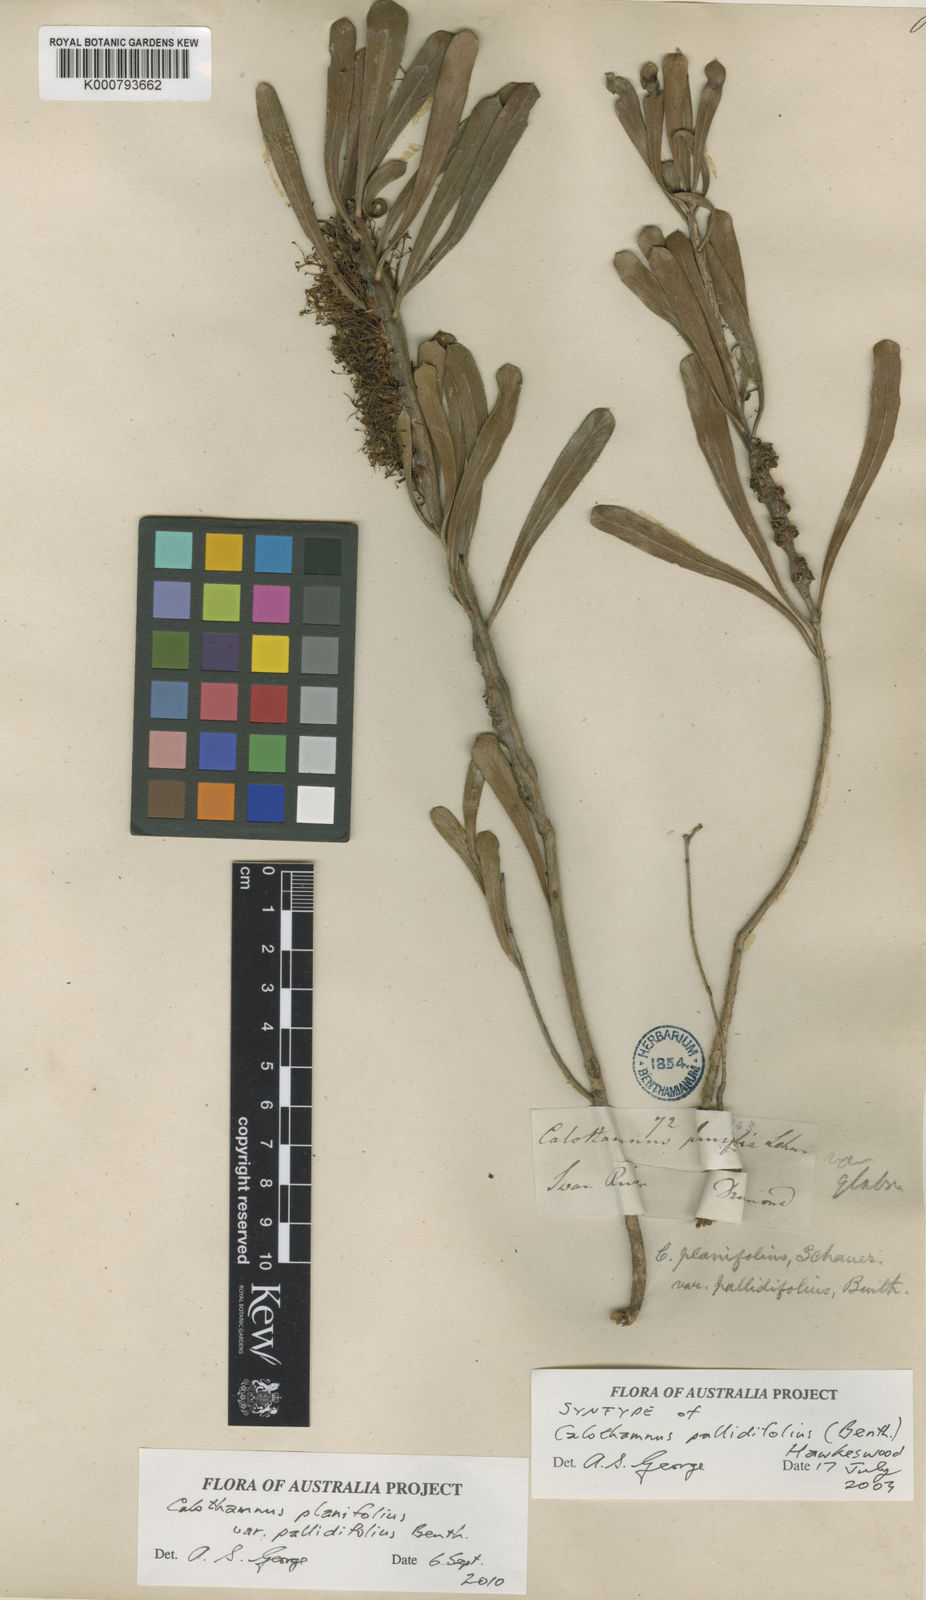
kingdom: Plantae
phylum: Tracheophyta
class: Magnoliopsida
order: Myrtales
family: Myrtaceae
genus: Melaleuca
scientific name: Melaleuca planifolia
